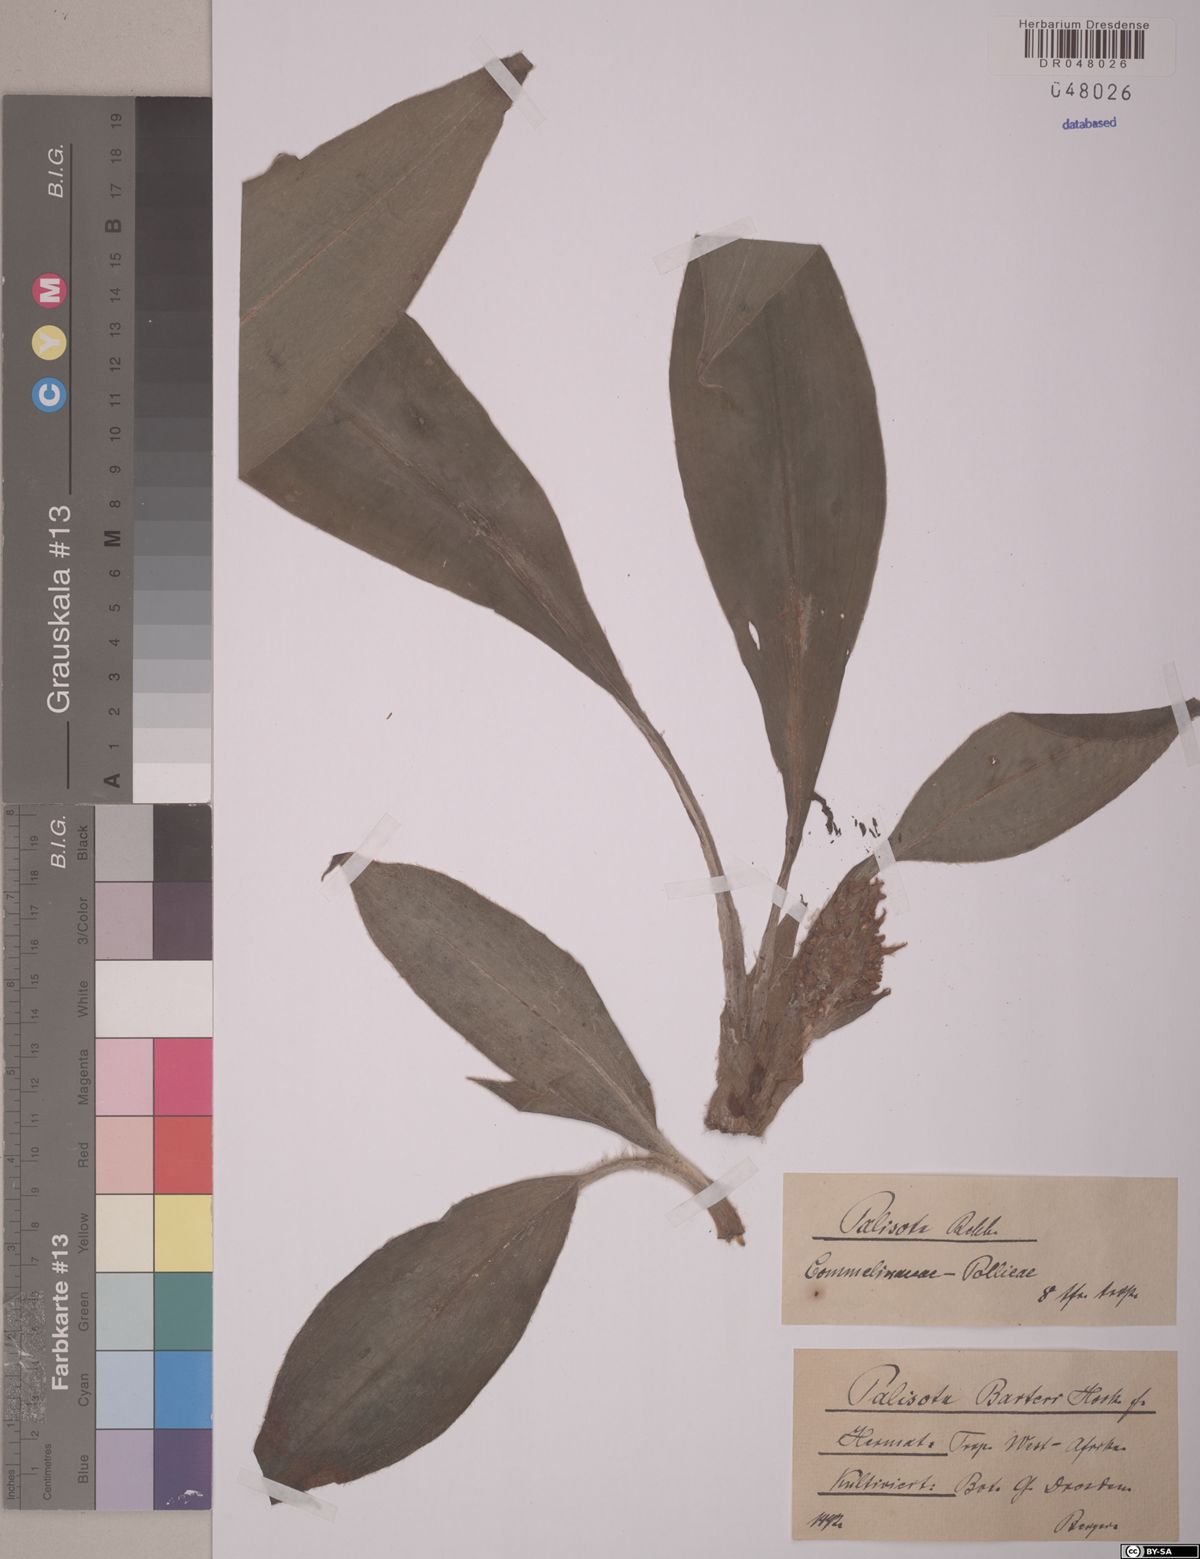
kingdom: Plantae
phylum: Tracheophyta
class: Liliopsida
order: Commelinales
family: Commelinaceae
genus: Palisota
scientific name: Palisota barteri
